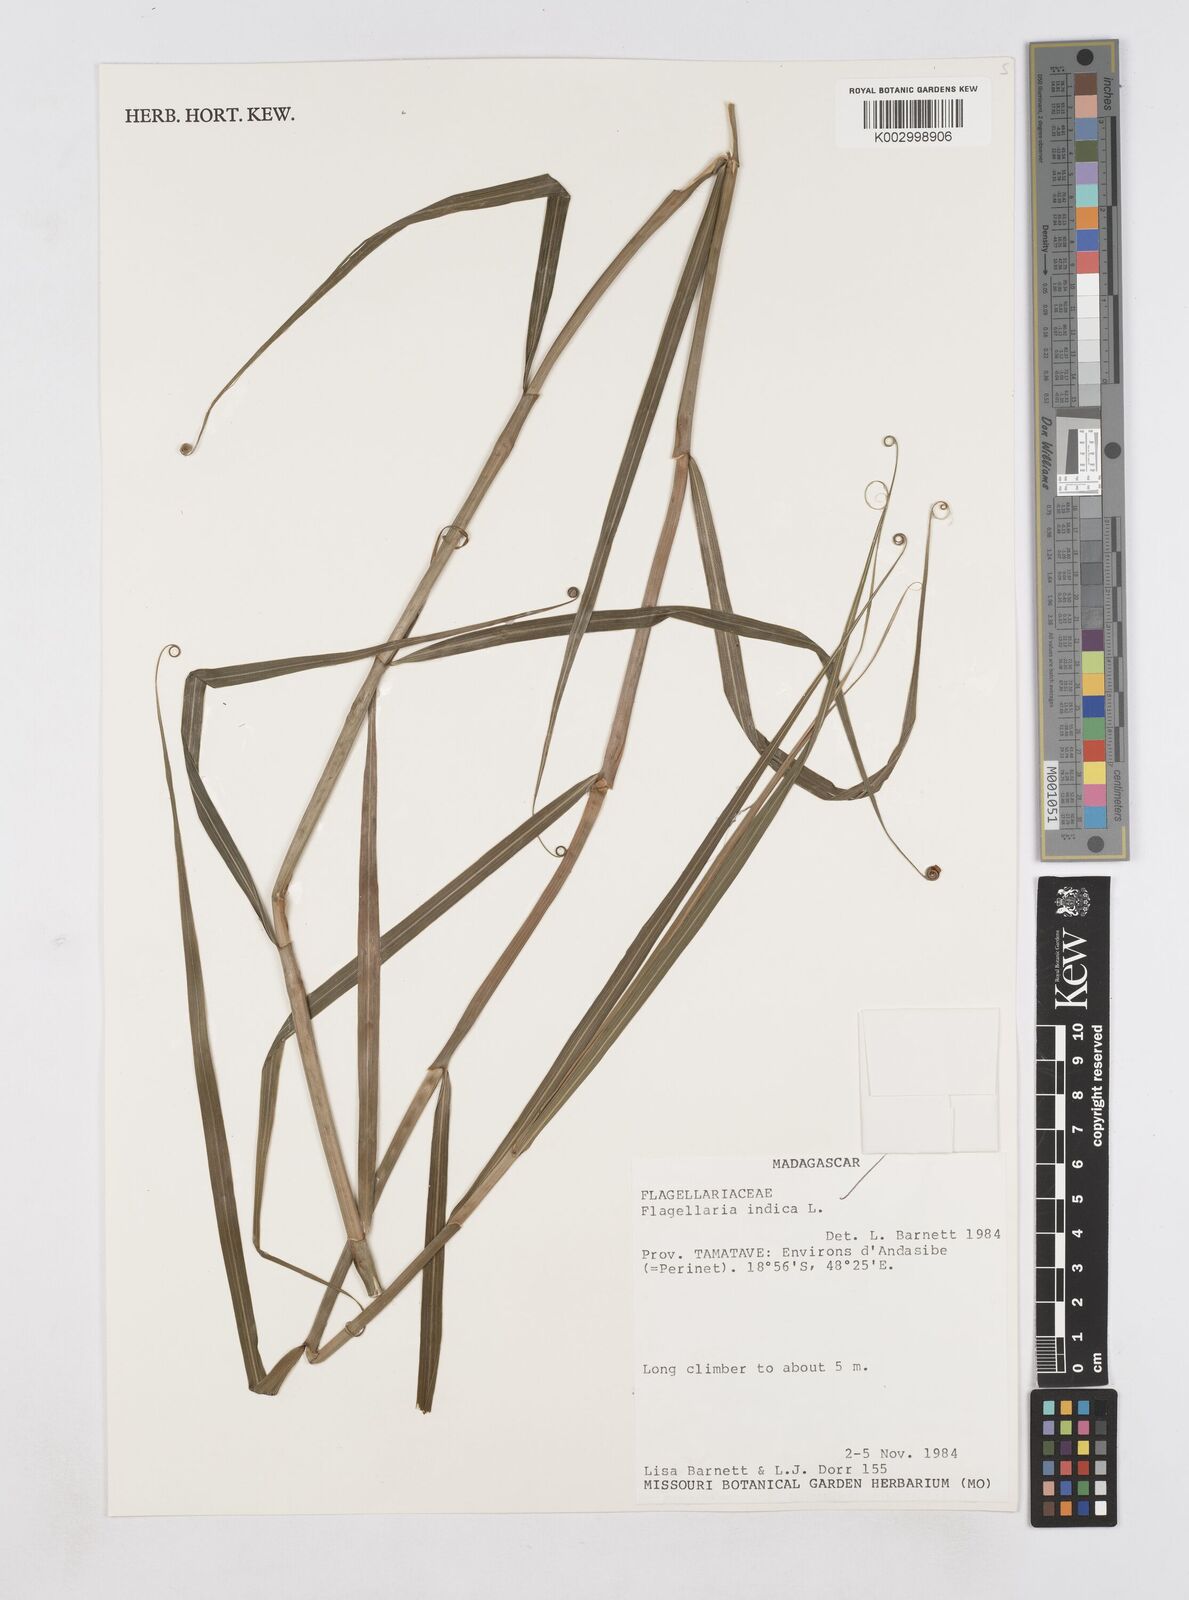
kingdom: Plantae
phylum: Tracheophyta
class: Liliopsida
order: Poales
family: Flagellariaceae
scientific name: Flagellariaceae
